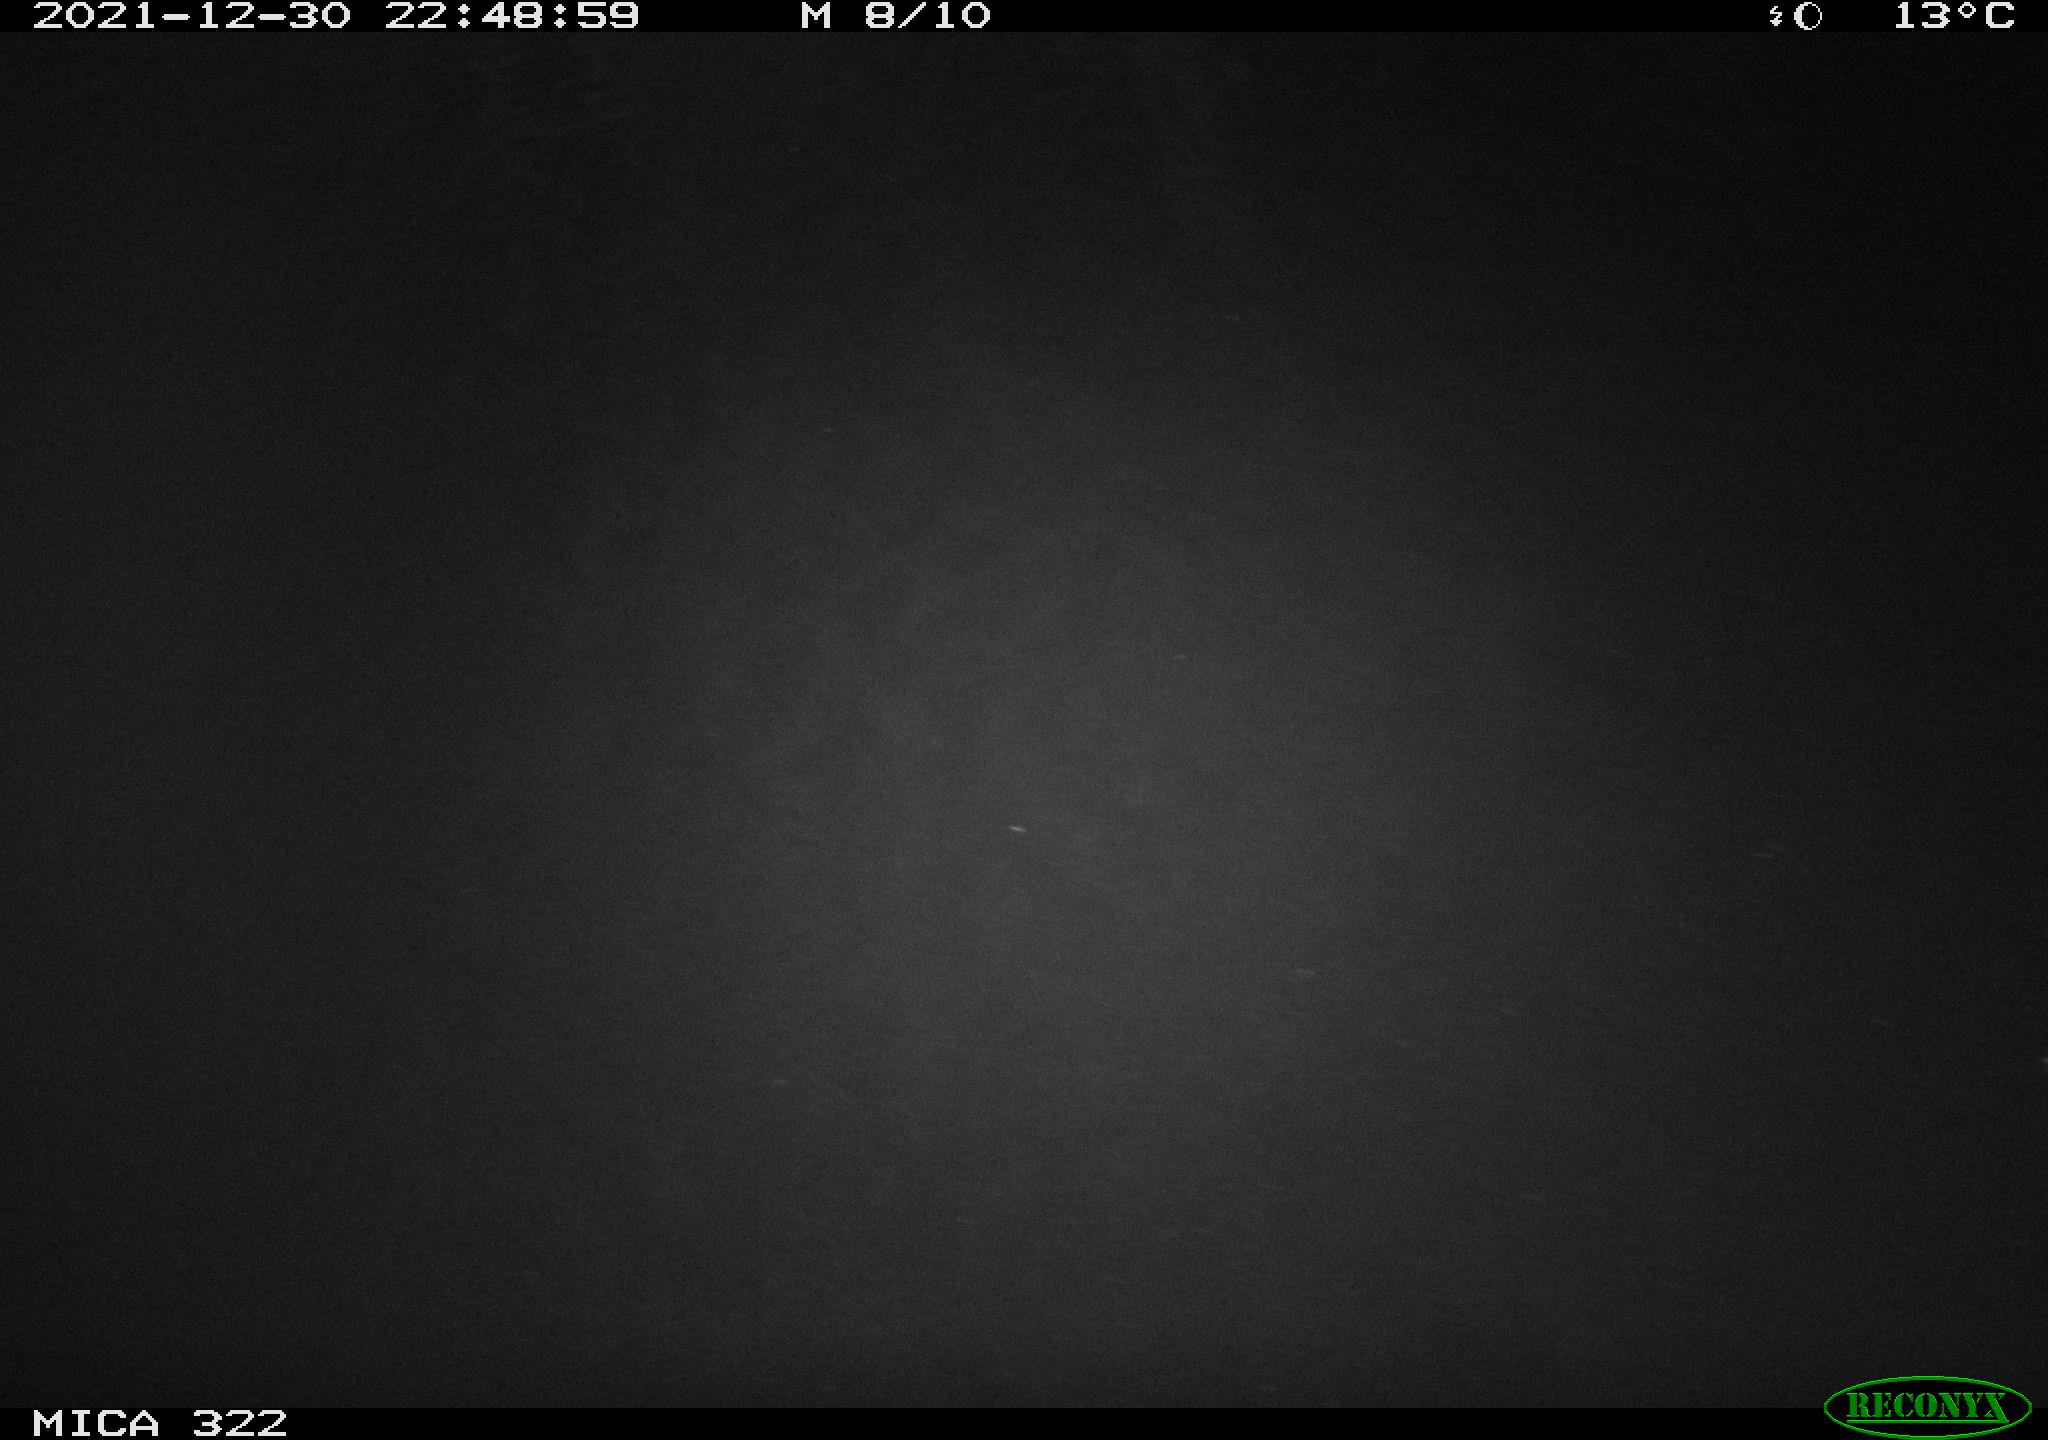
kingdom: Animalia
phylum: Chordata
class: Aves
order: Anseriformes
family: Anatidae
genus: Anas
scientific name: Anas
